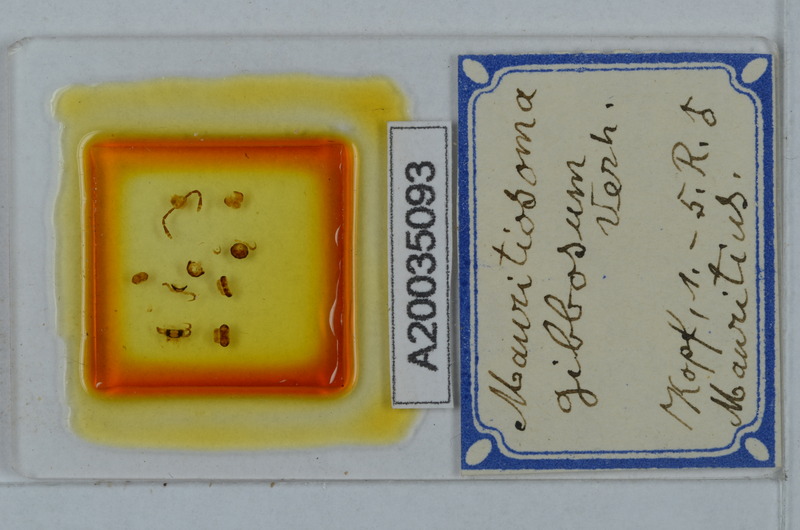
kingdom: Animalia
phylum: Arthropoda
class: Diplopoda
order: Polydesmida
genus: Mauritiosoma
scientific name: Mauritiosoma gibbosum
